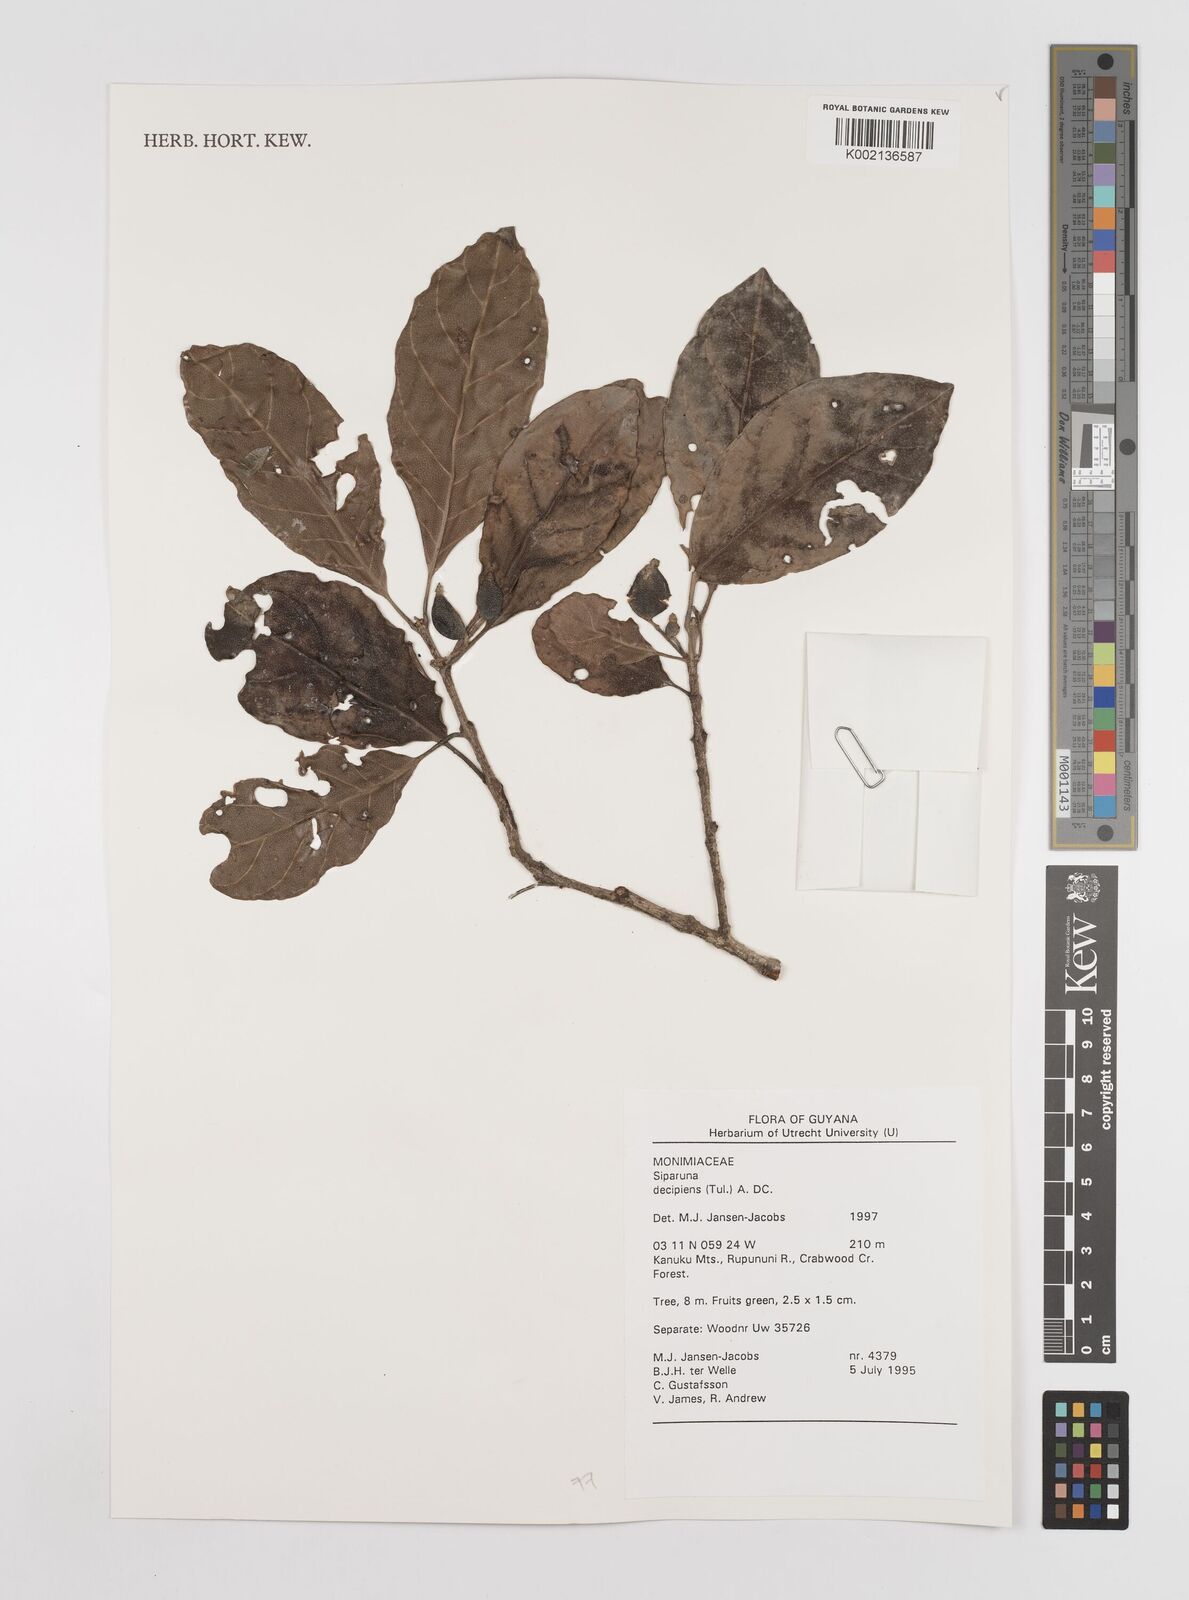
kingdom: Plantae
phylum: Tracheophyta
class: Magnoliopsida
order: Laurales
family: Siparunaceae
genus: Siparuna
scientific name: Siparuna decipiens
